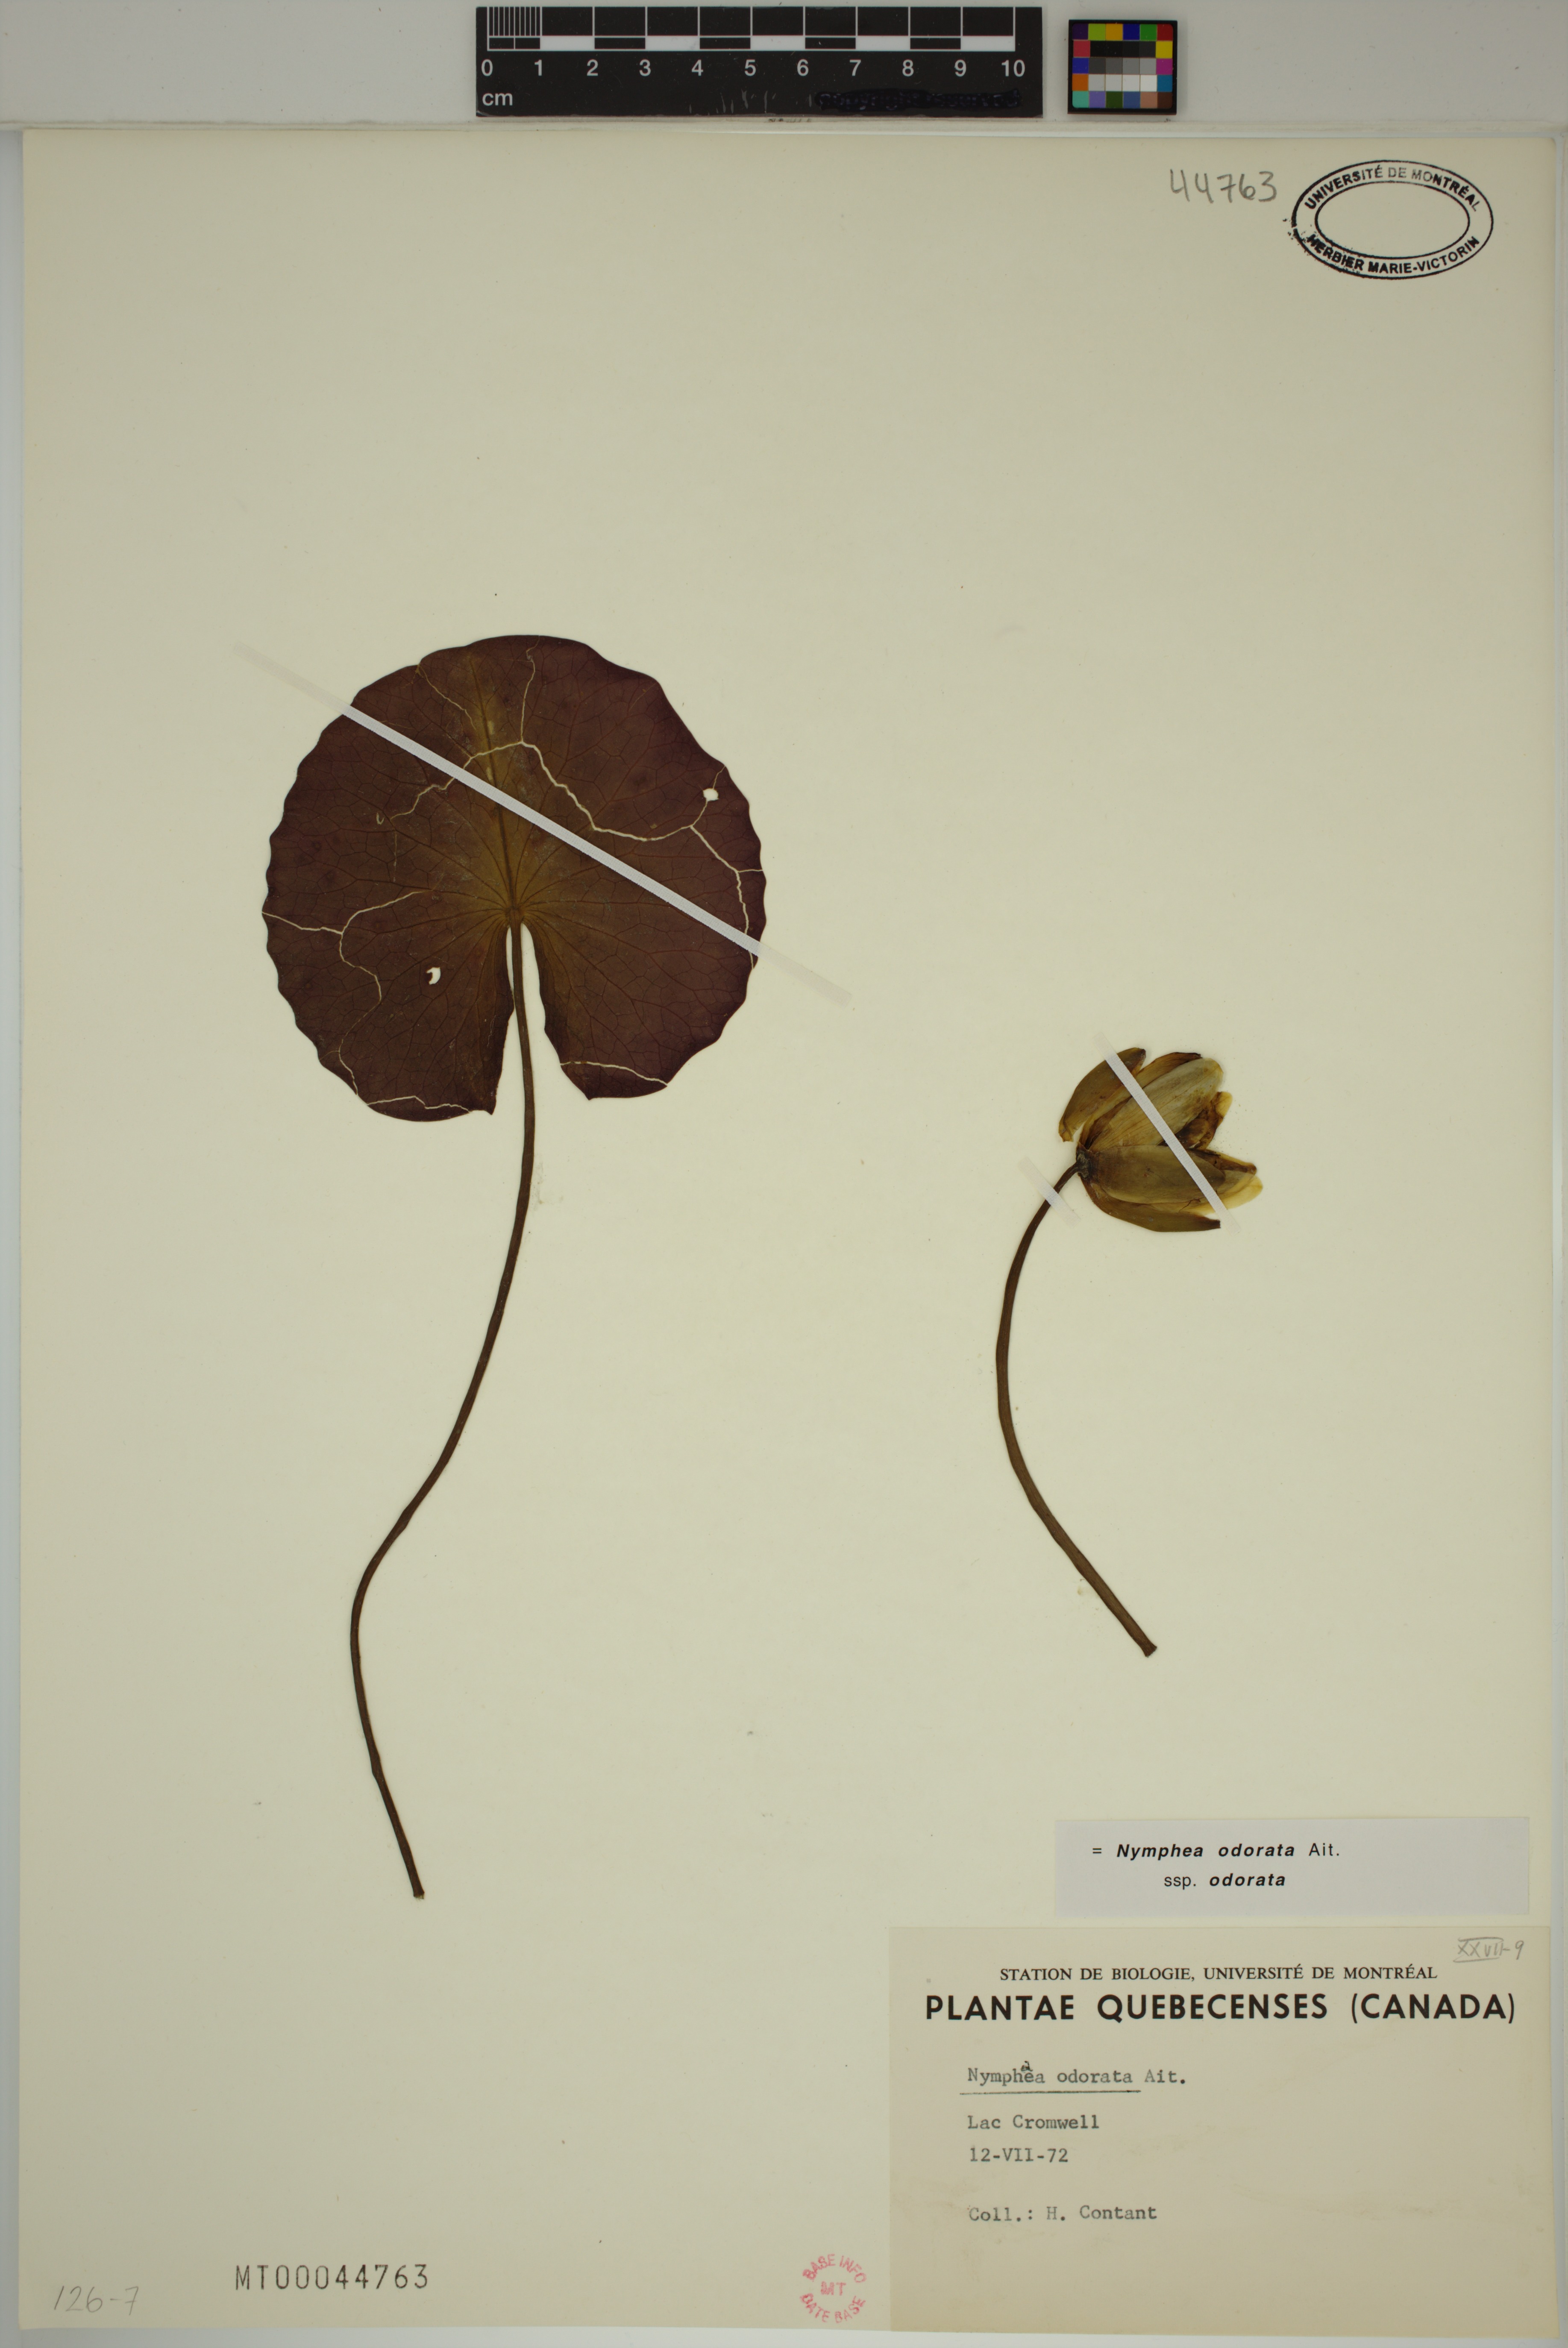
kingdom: Plantae
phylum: Tracheophyta
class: Magnoliopsida
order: Nymphaeales
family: Nymphaeaceae
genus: Nymphaea
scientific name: Nymphaea odorata
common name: Fragrant water-lily
